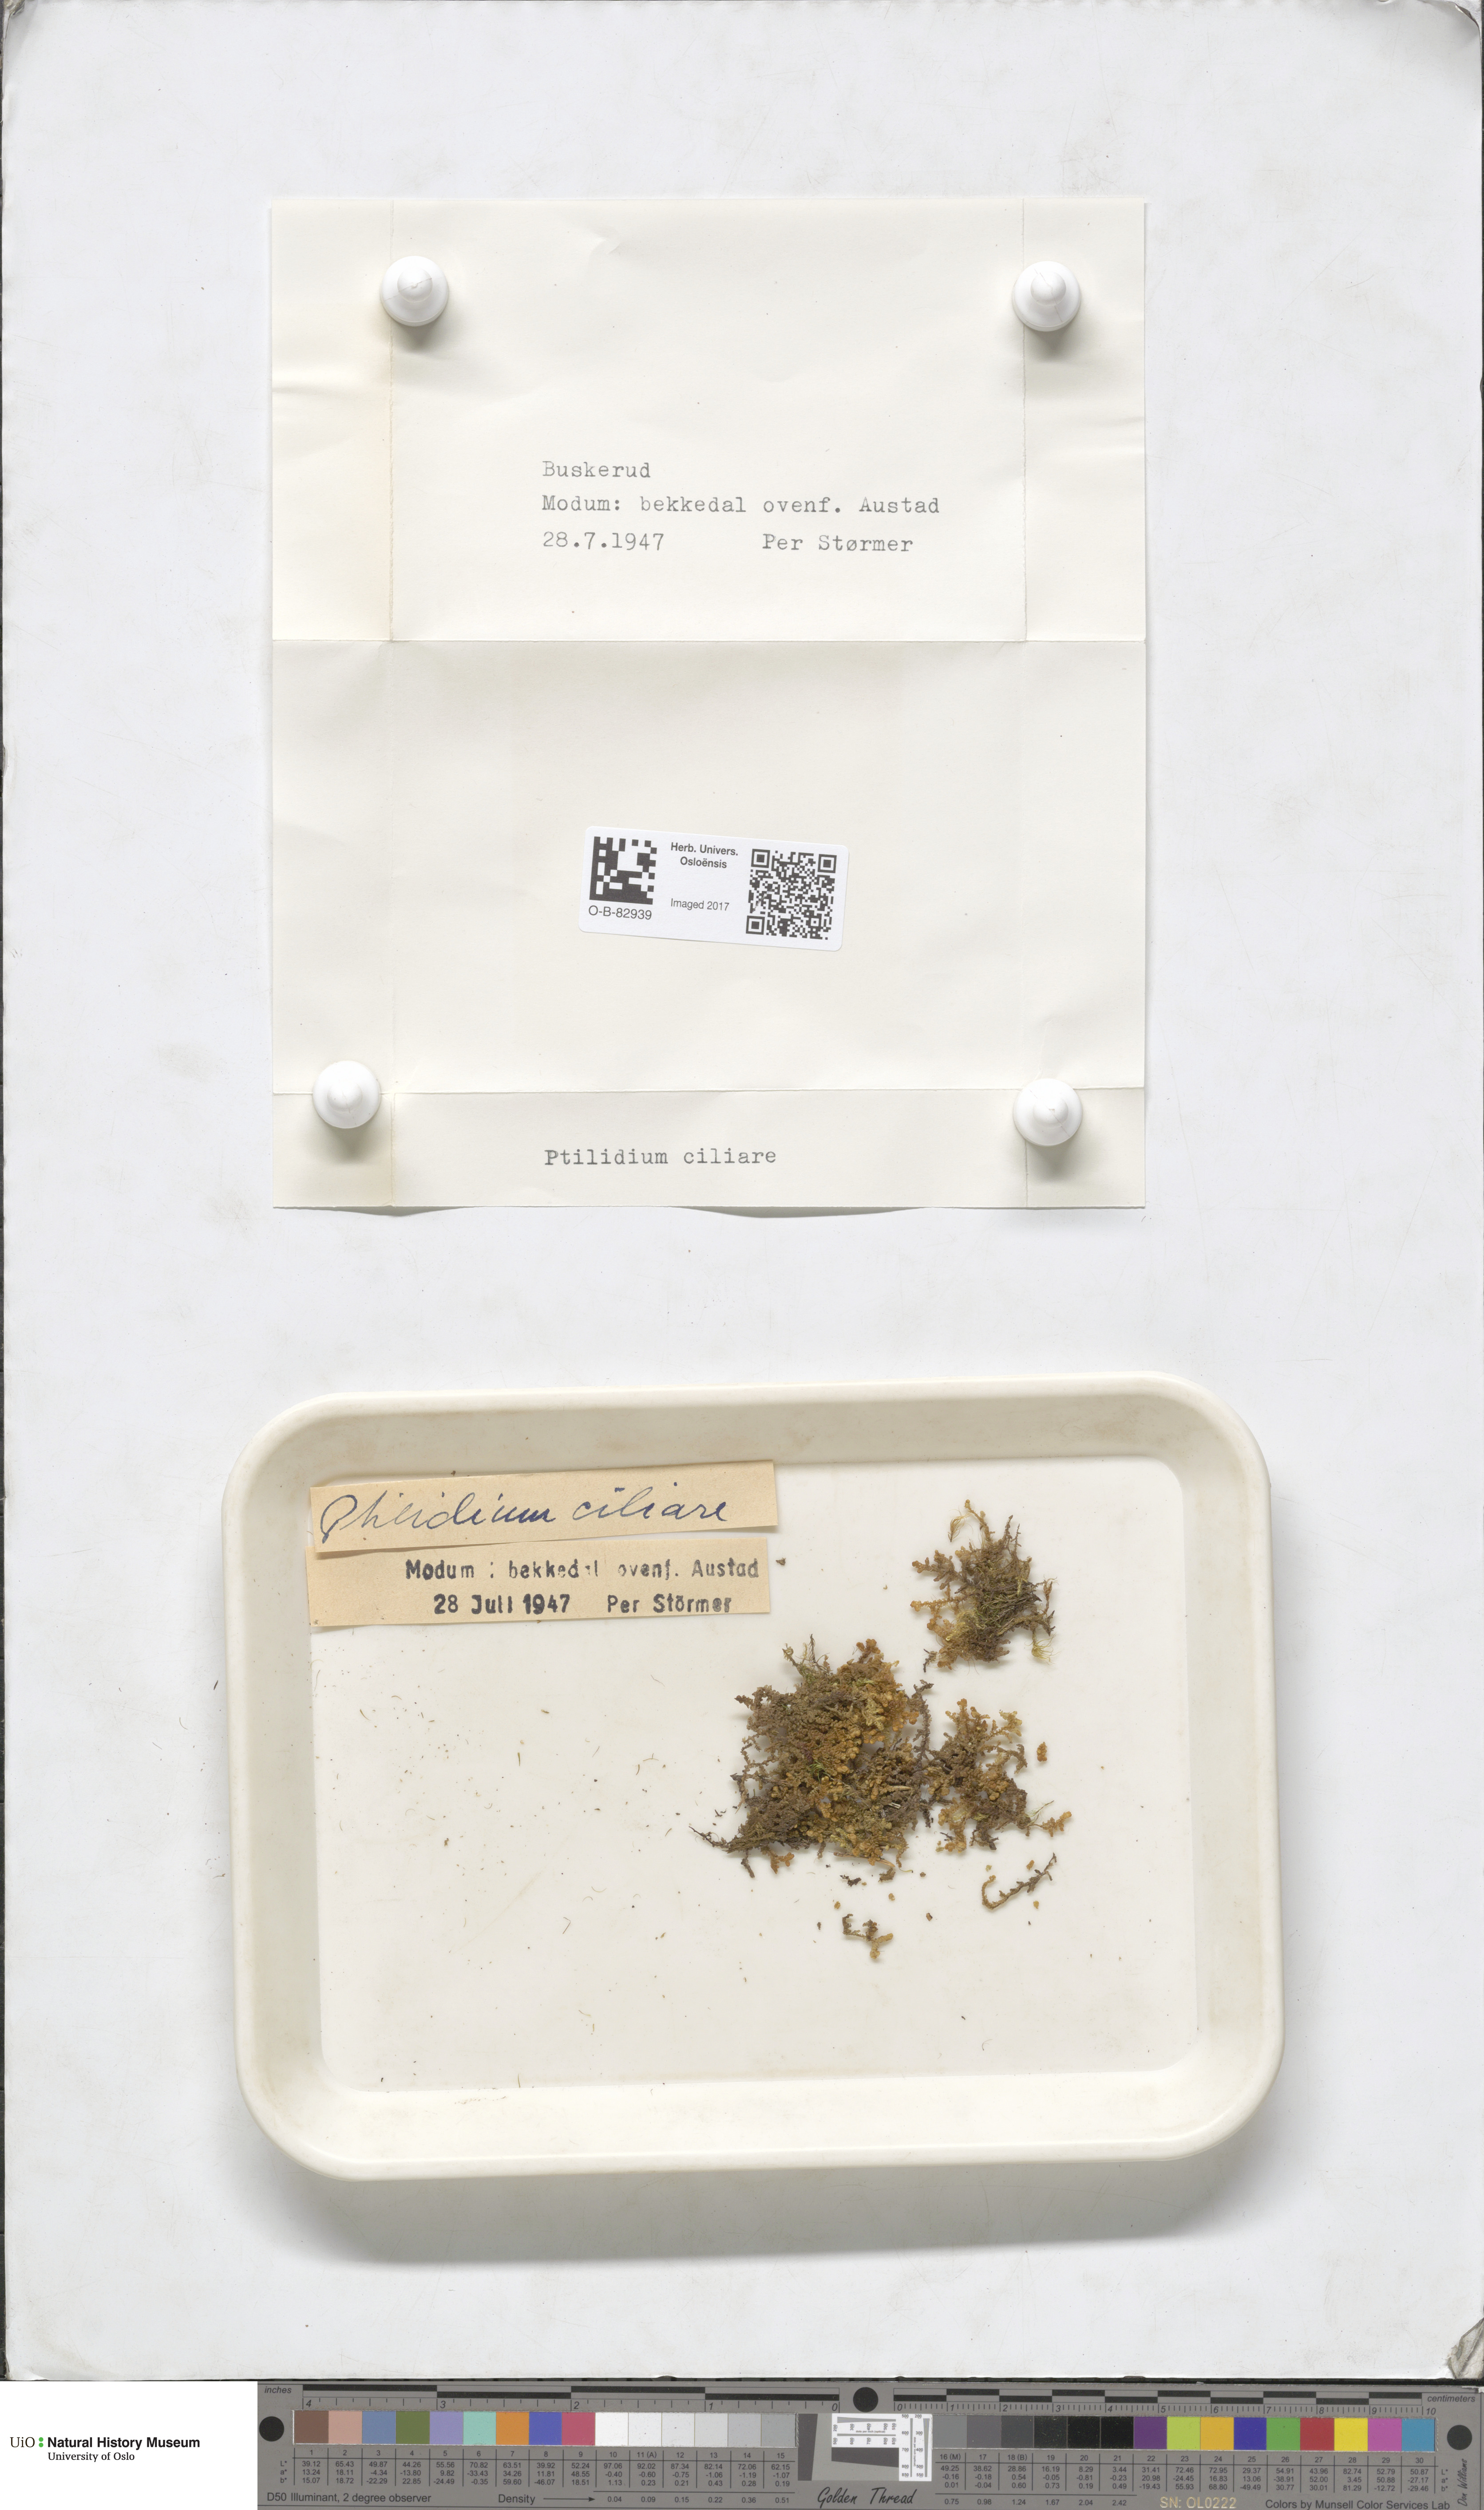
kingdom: Plantae
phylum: Marchantiophyta
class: Jungermanniopsida
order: Ptilidiales
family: Ptilidiaceae
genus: Ptilidium
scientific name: Ptilidium ciliare
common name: Ciliate fringewort
